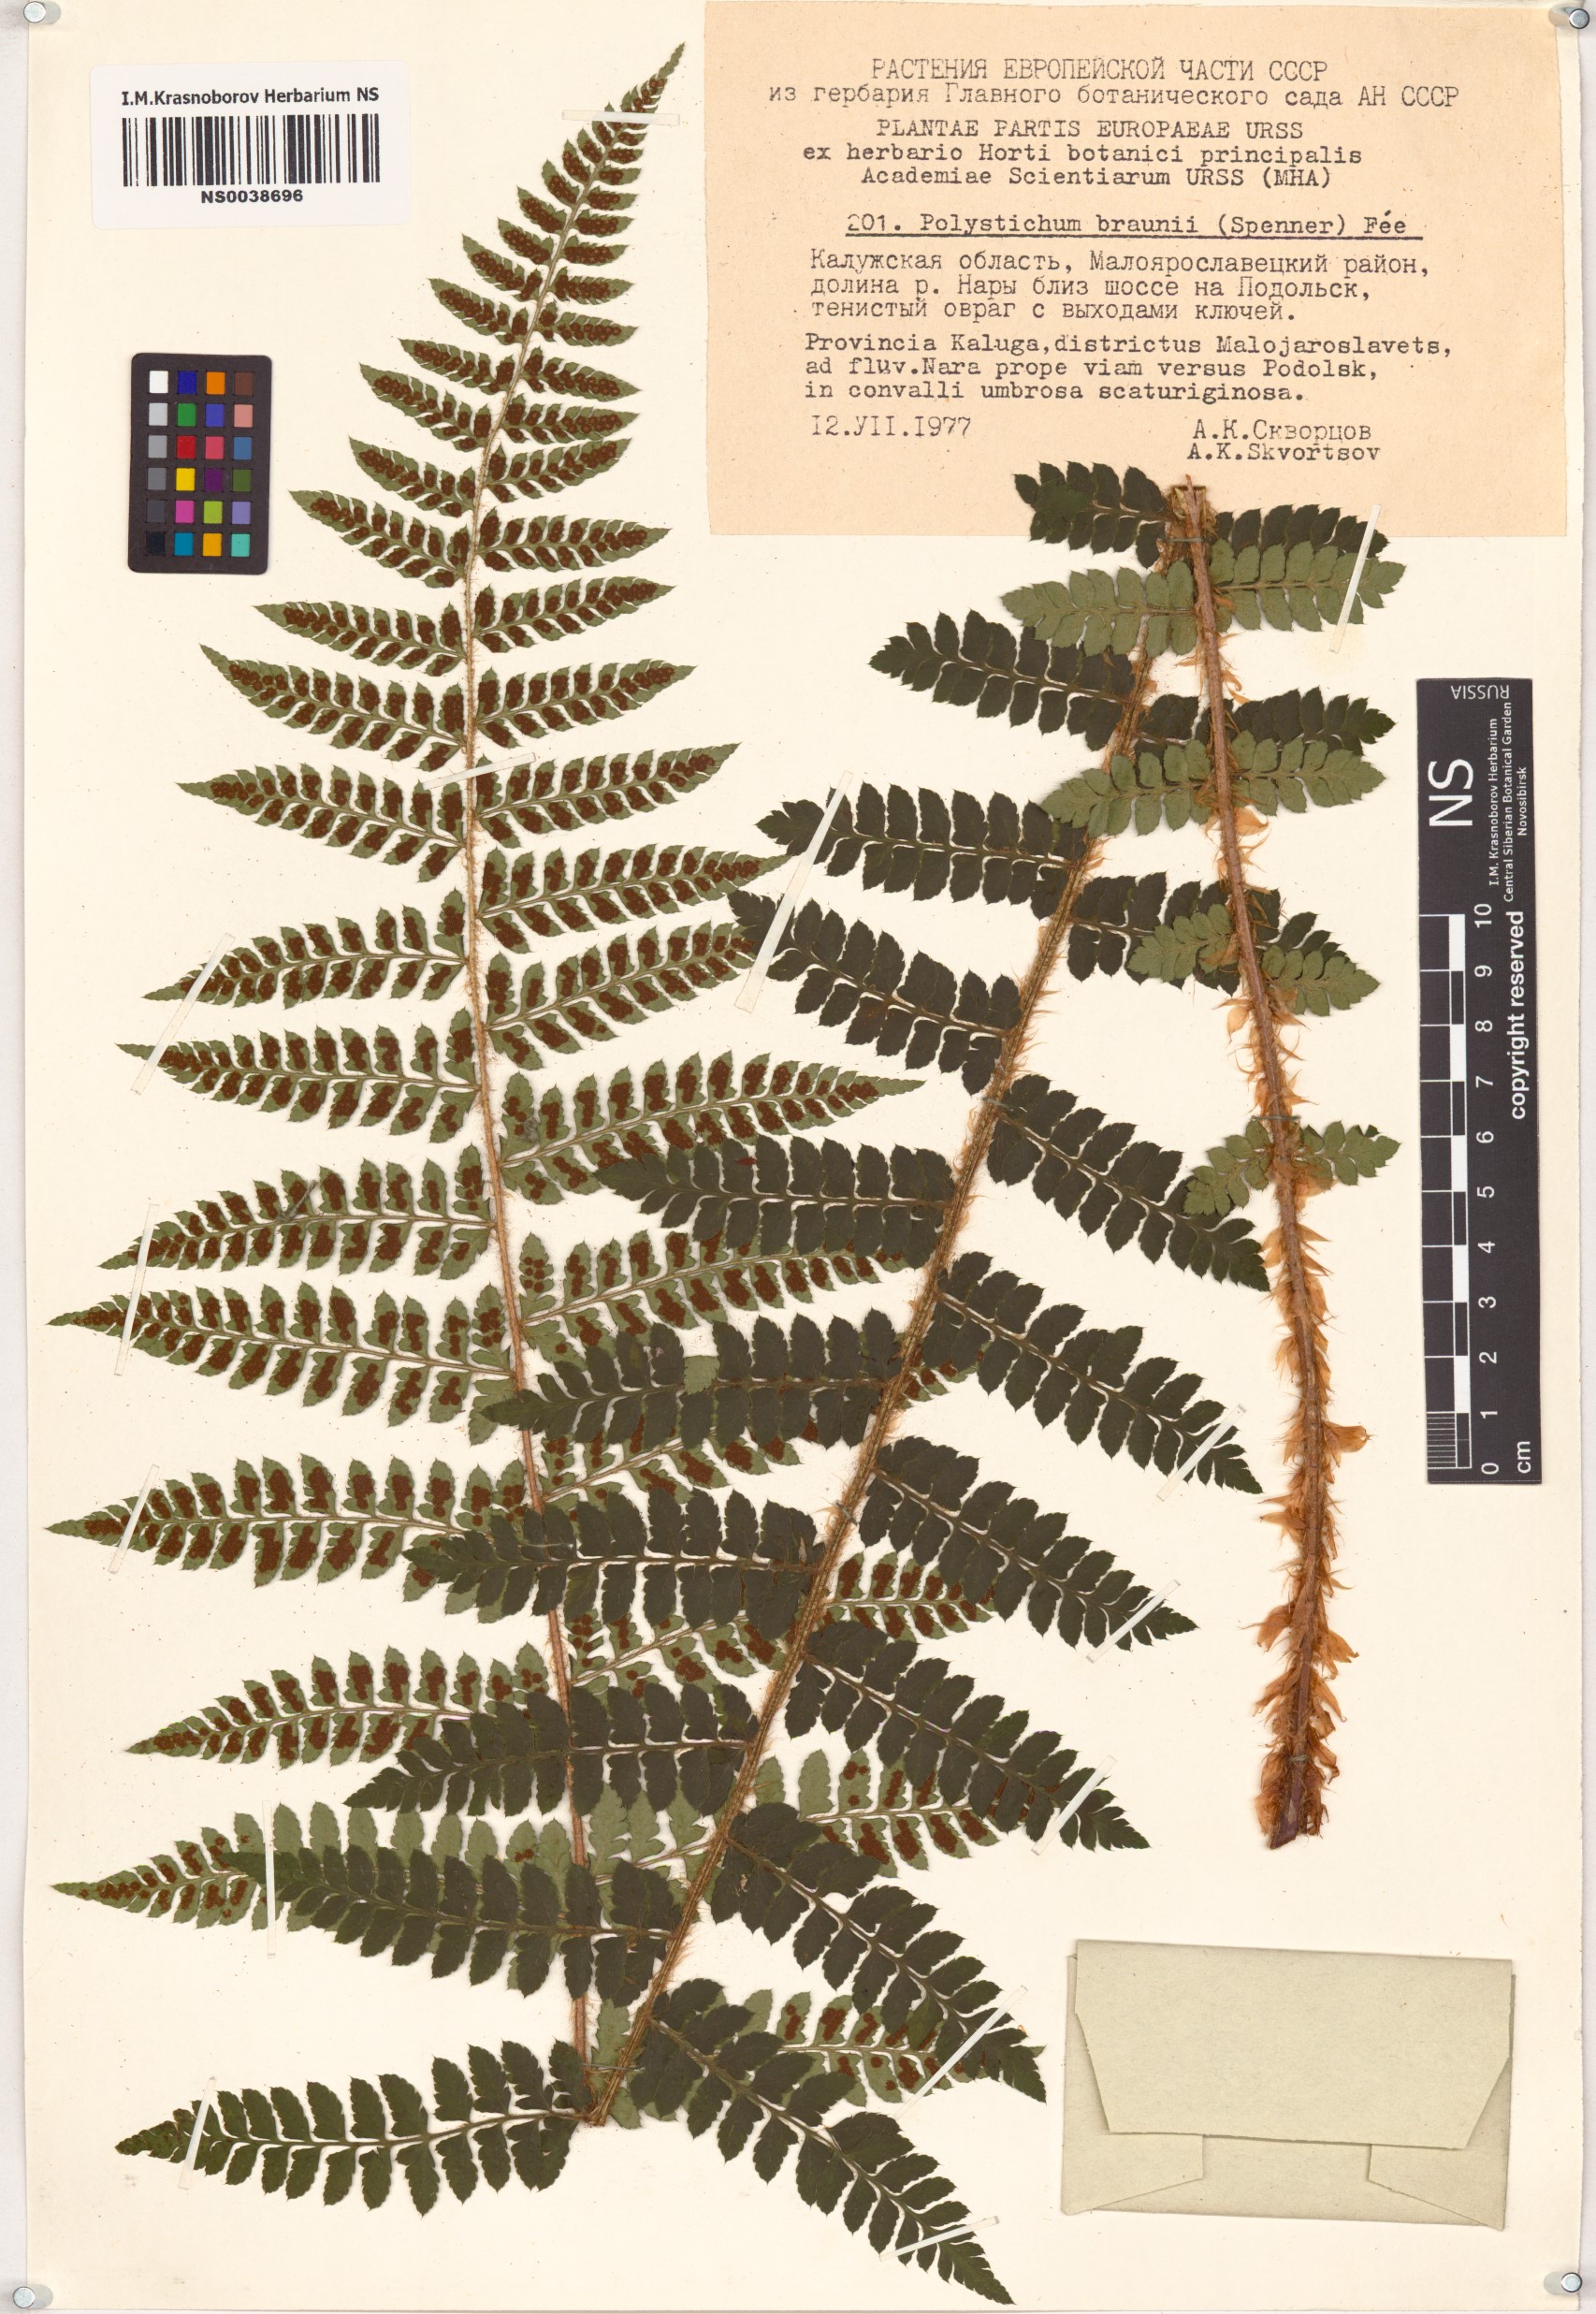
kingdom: Plantae
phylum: Tracheophyta
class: Polypodiopsida
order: Polypodiales
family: Dryopteridaceae
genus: Polystichum
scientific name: Polystichum braunii
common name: Braun's holly fern
